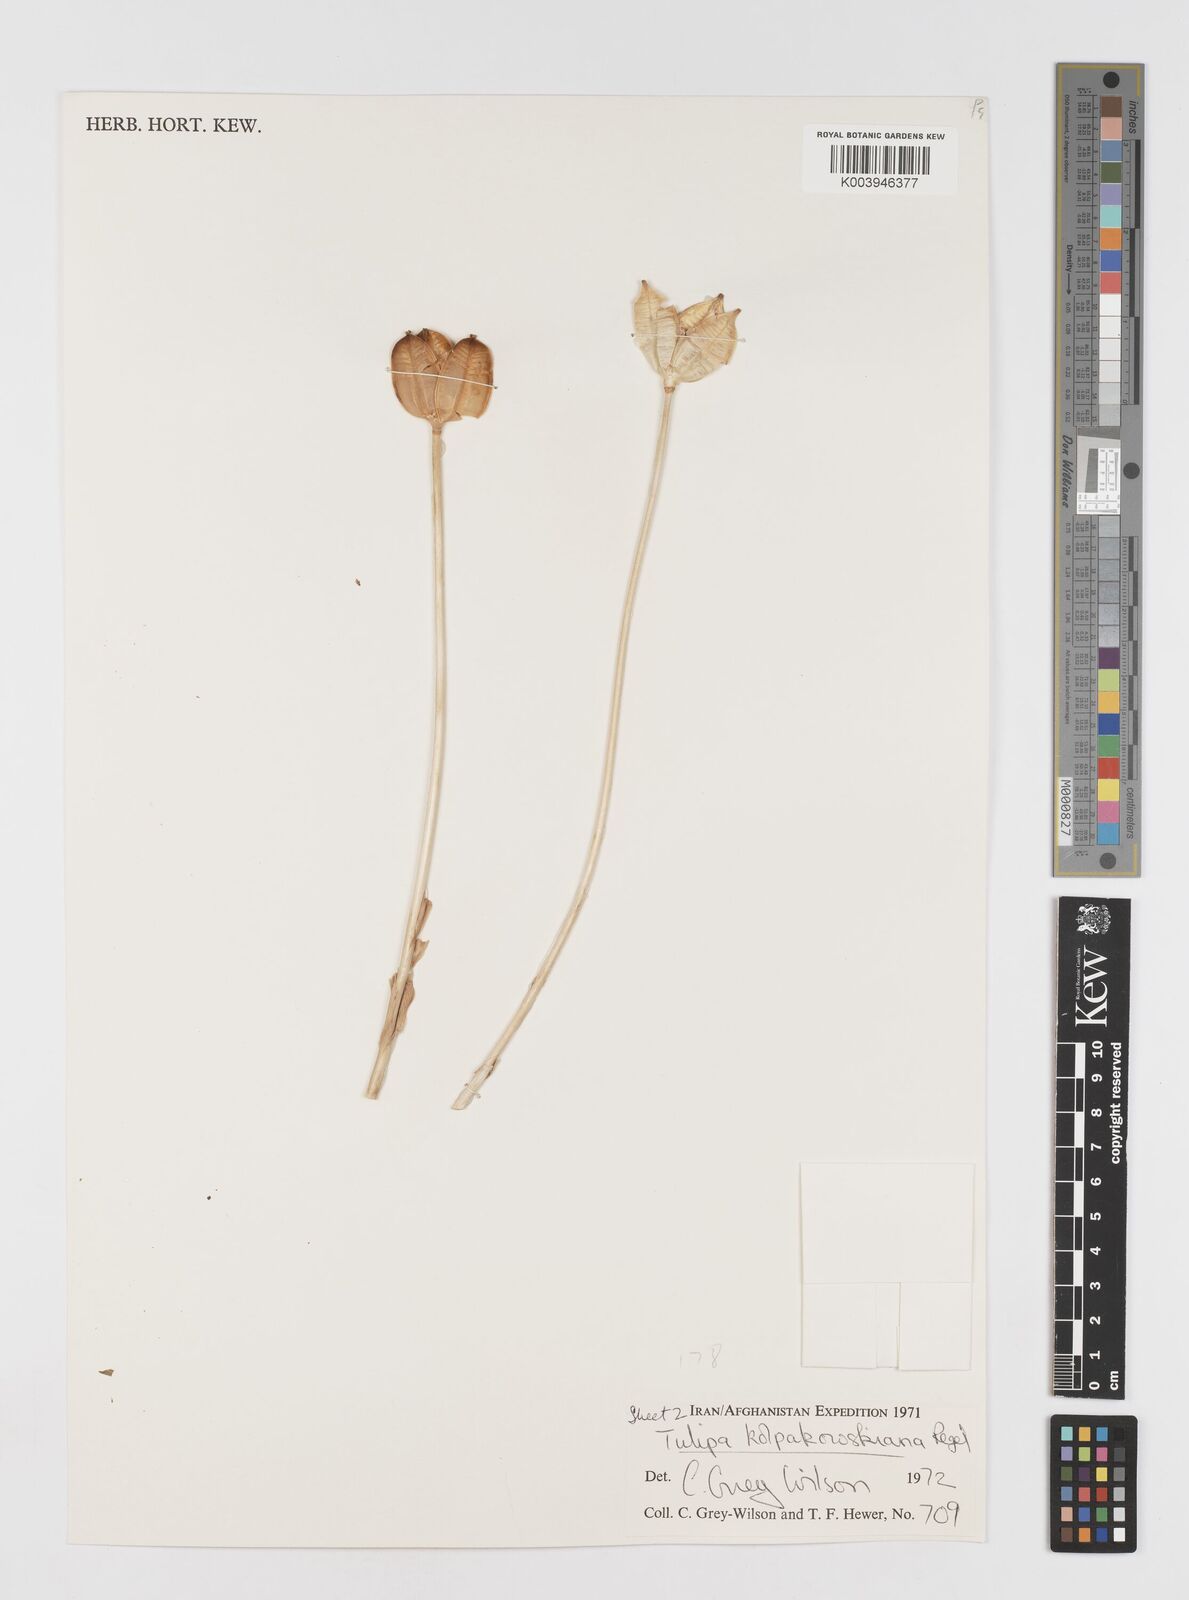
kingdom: Plantae
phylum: Tracheophyta
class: Liliopsida
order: Liliales
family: Liliaceae
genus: Tulipa
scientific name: Tulipa kolpakowskiana
